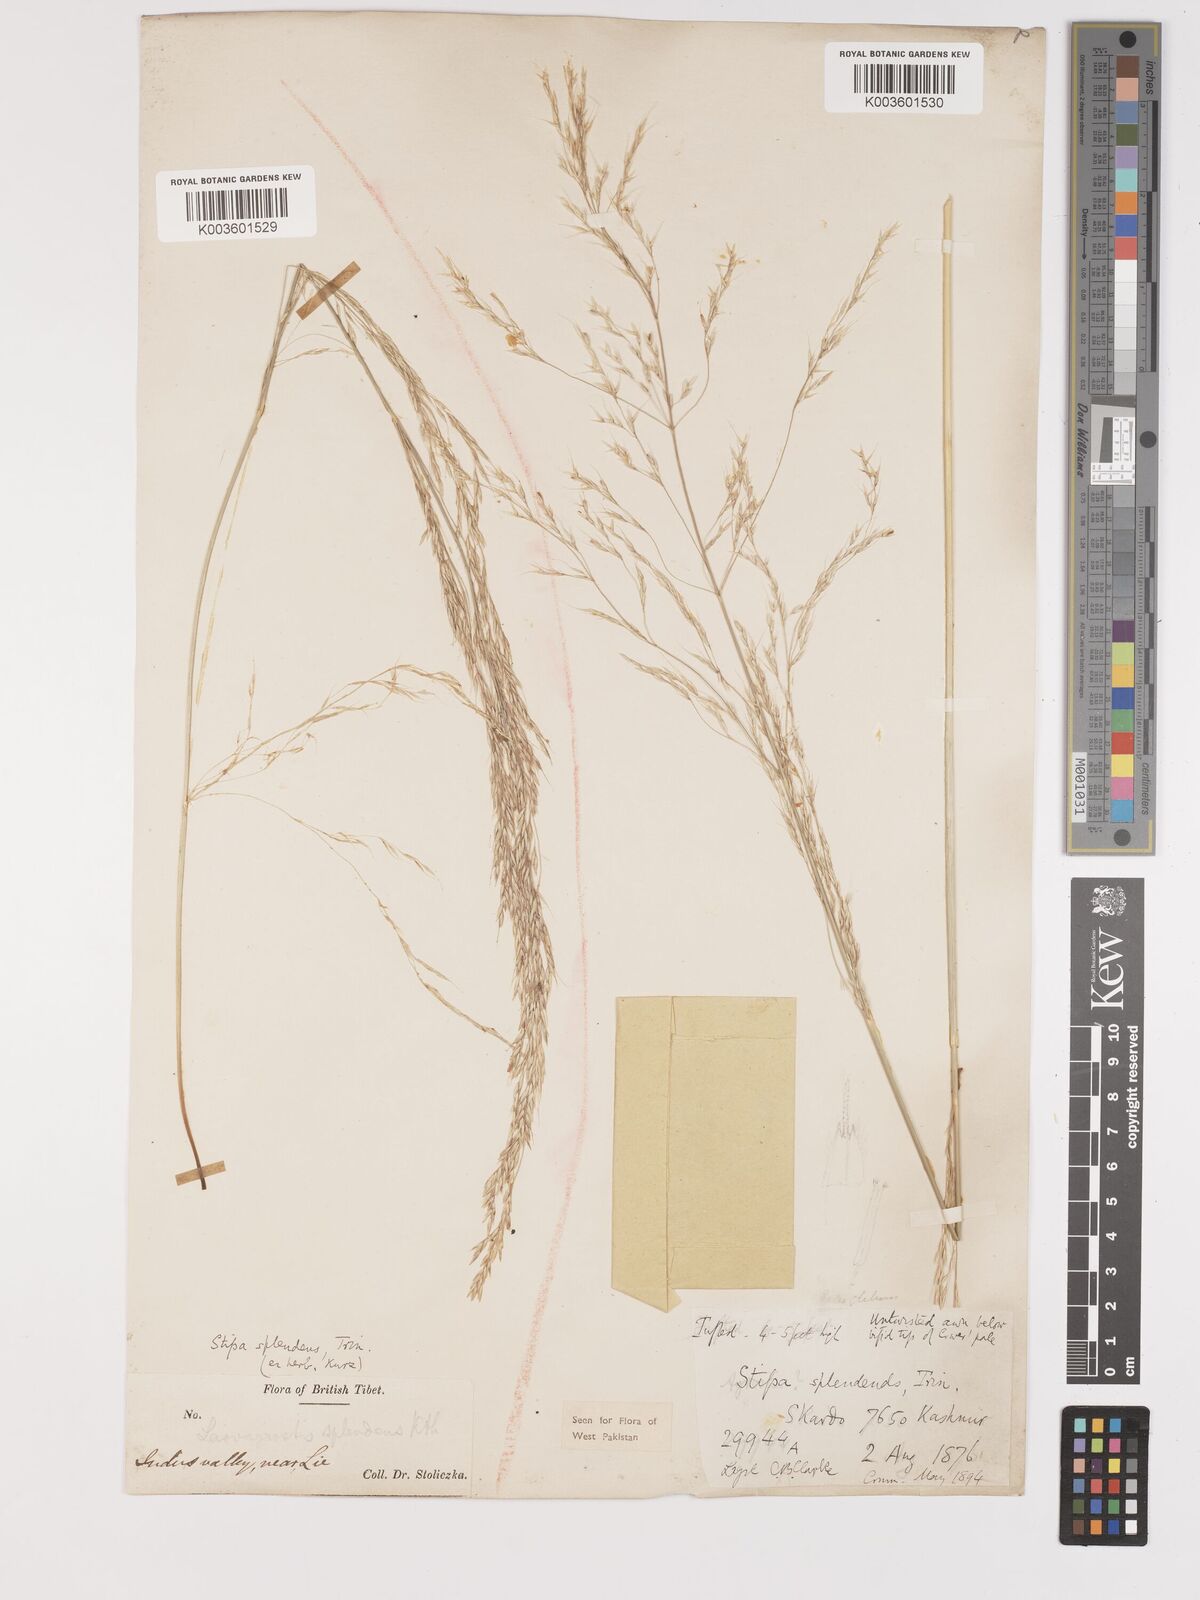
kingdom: Plantae
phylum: Tracheophyta
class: Liliopsida
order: Poales
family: Poaceae
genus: Neotrinia
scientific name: Neotrinia splendens
